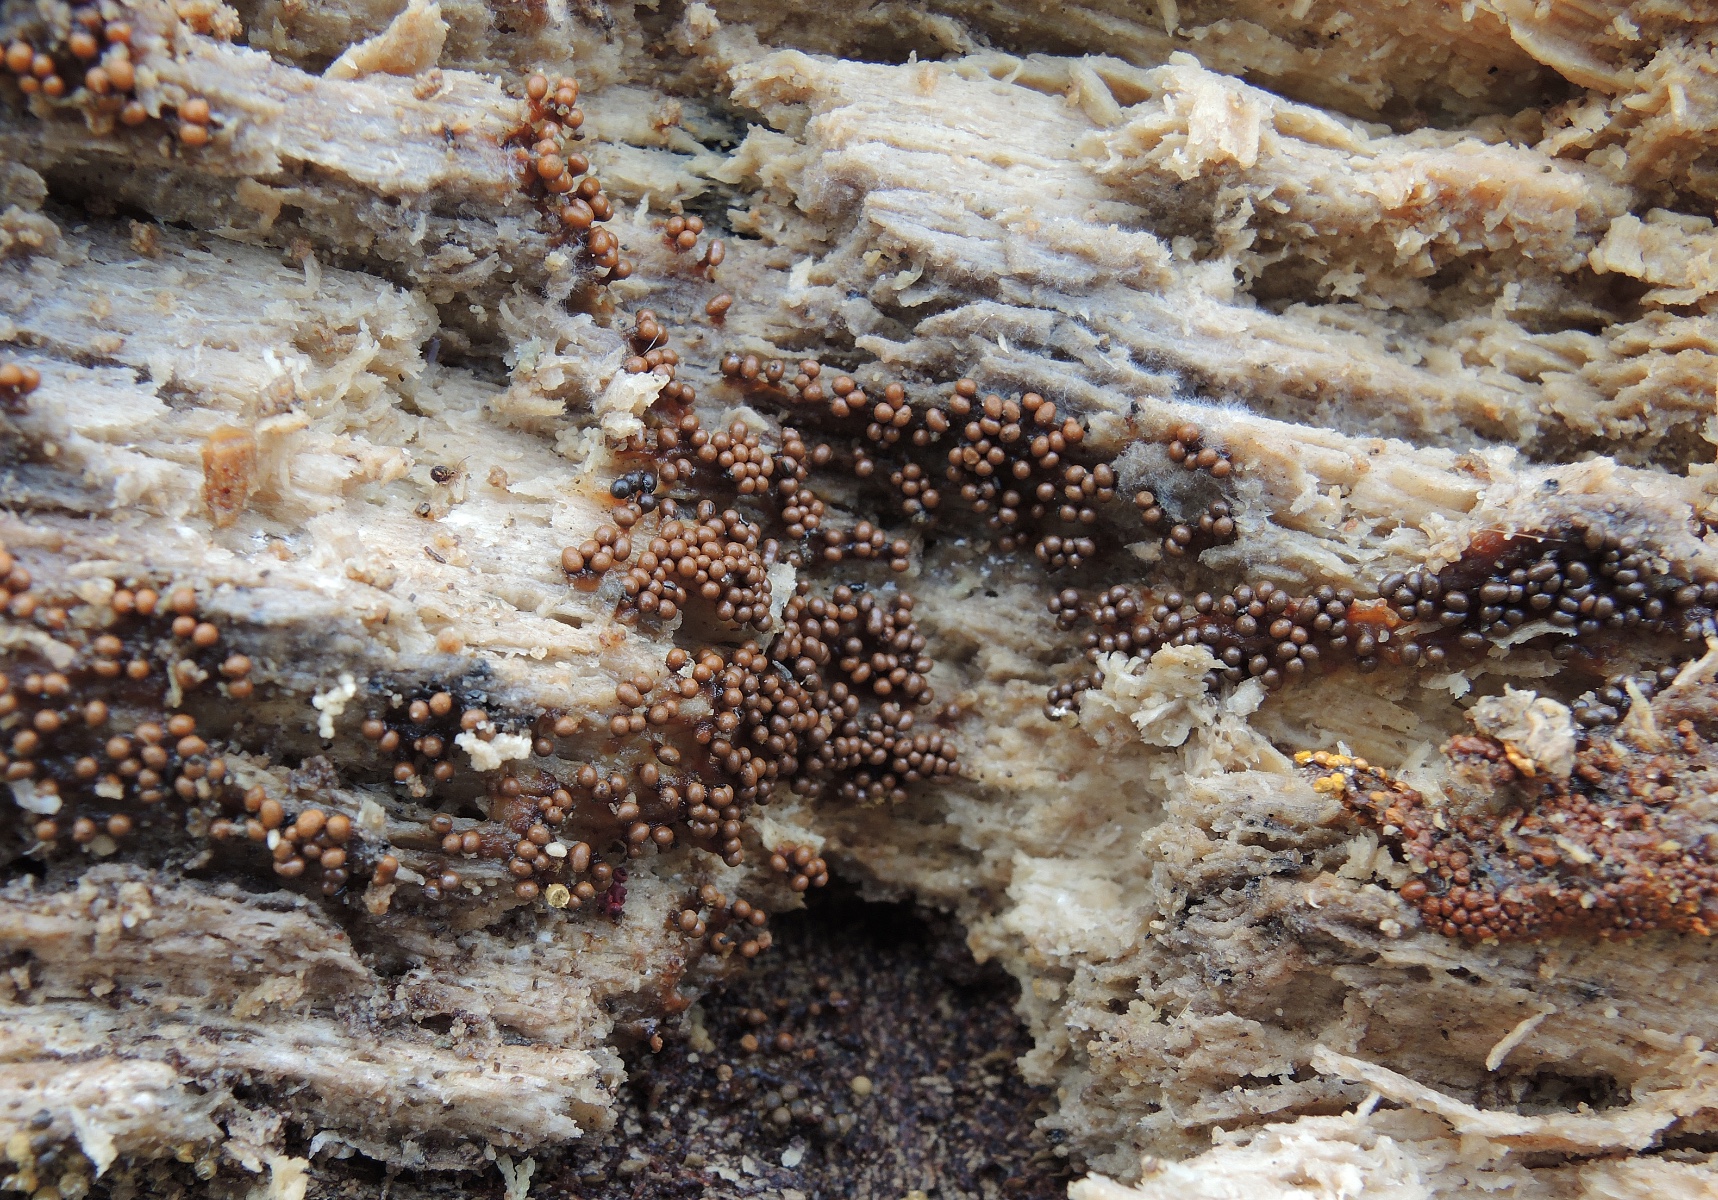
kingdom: Protozoa
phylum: Mycetozoa
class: Myxomycetes
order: Trichiales
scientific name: Trichiales
